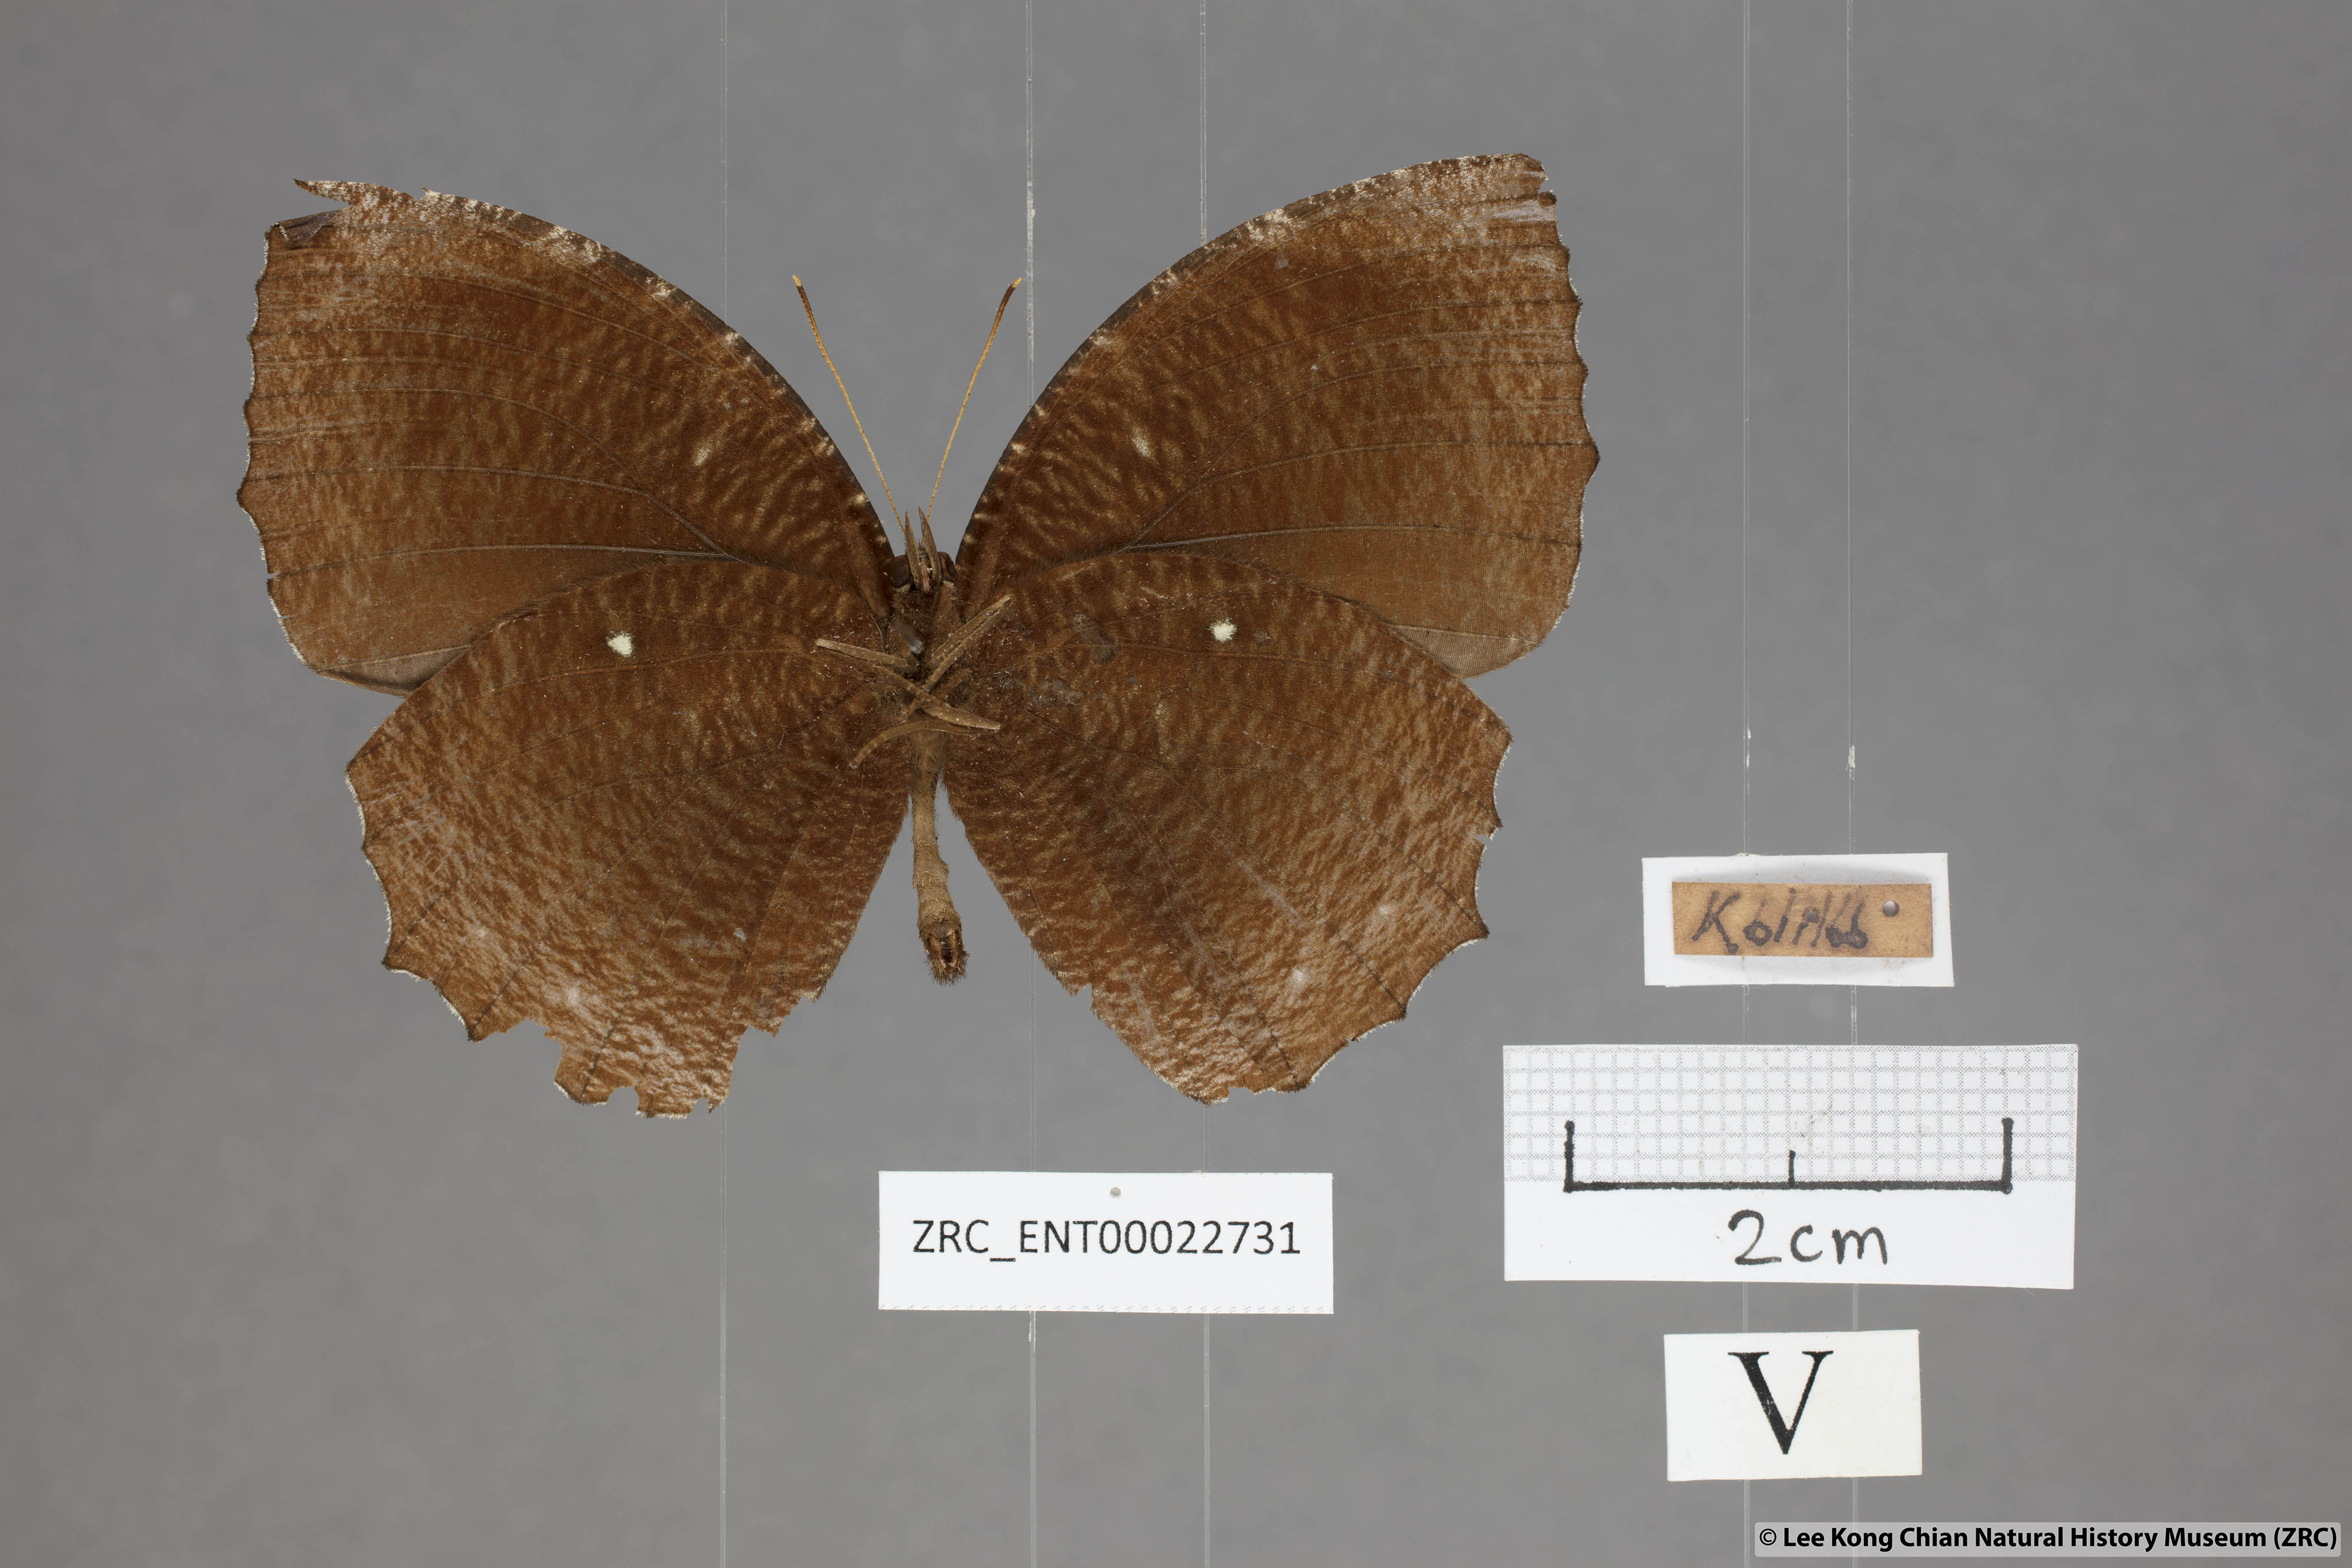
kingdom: Animalia
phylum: Arthropoda
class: Insecta
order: Lepidoptera
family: Nymphalidae
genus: Elymnias
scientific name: Elymnias hypermnestra
